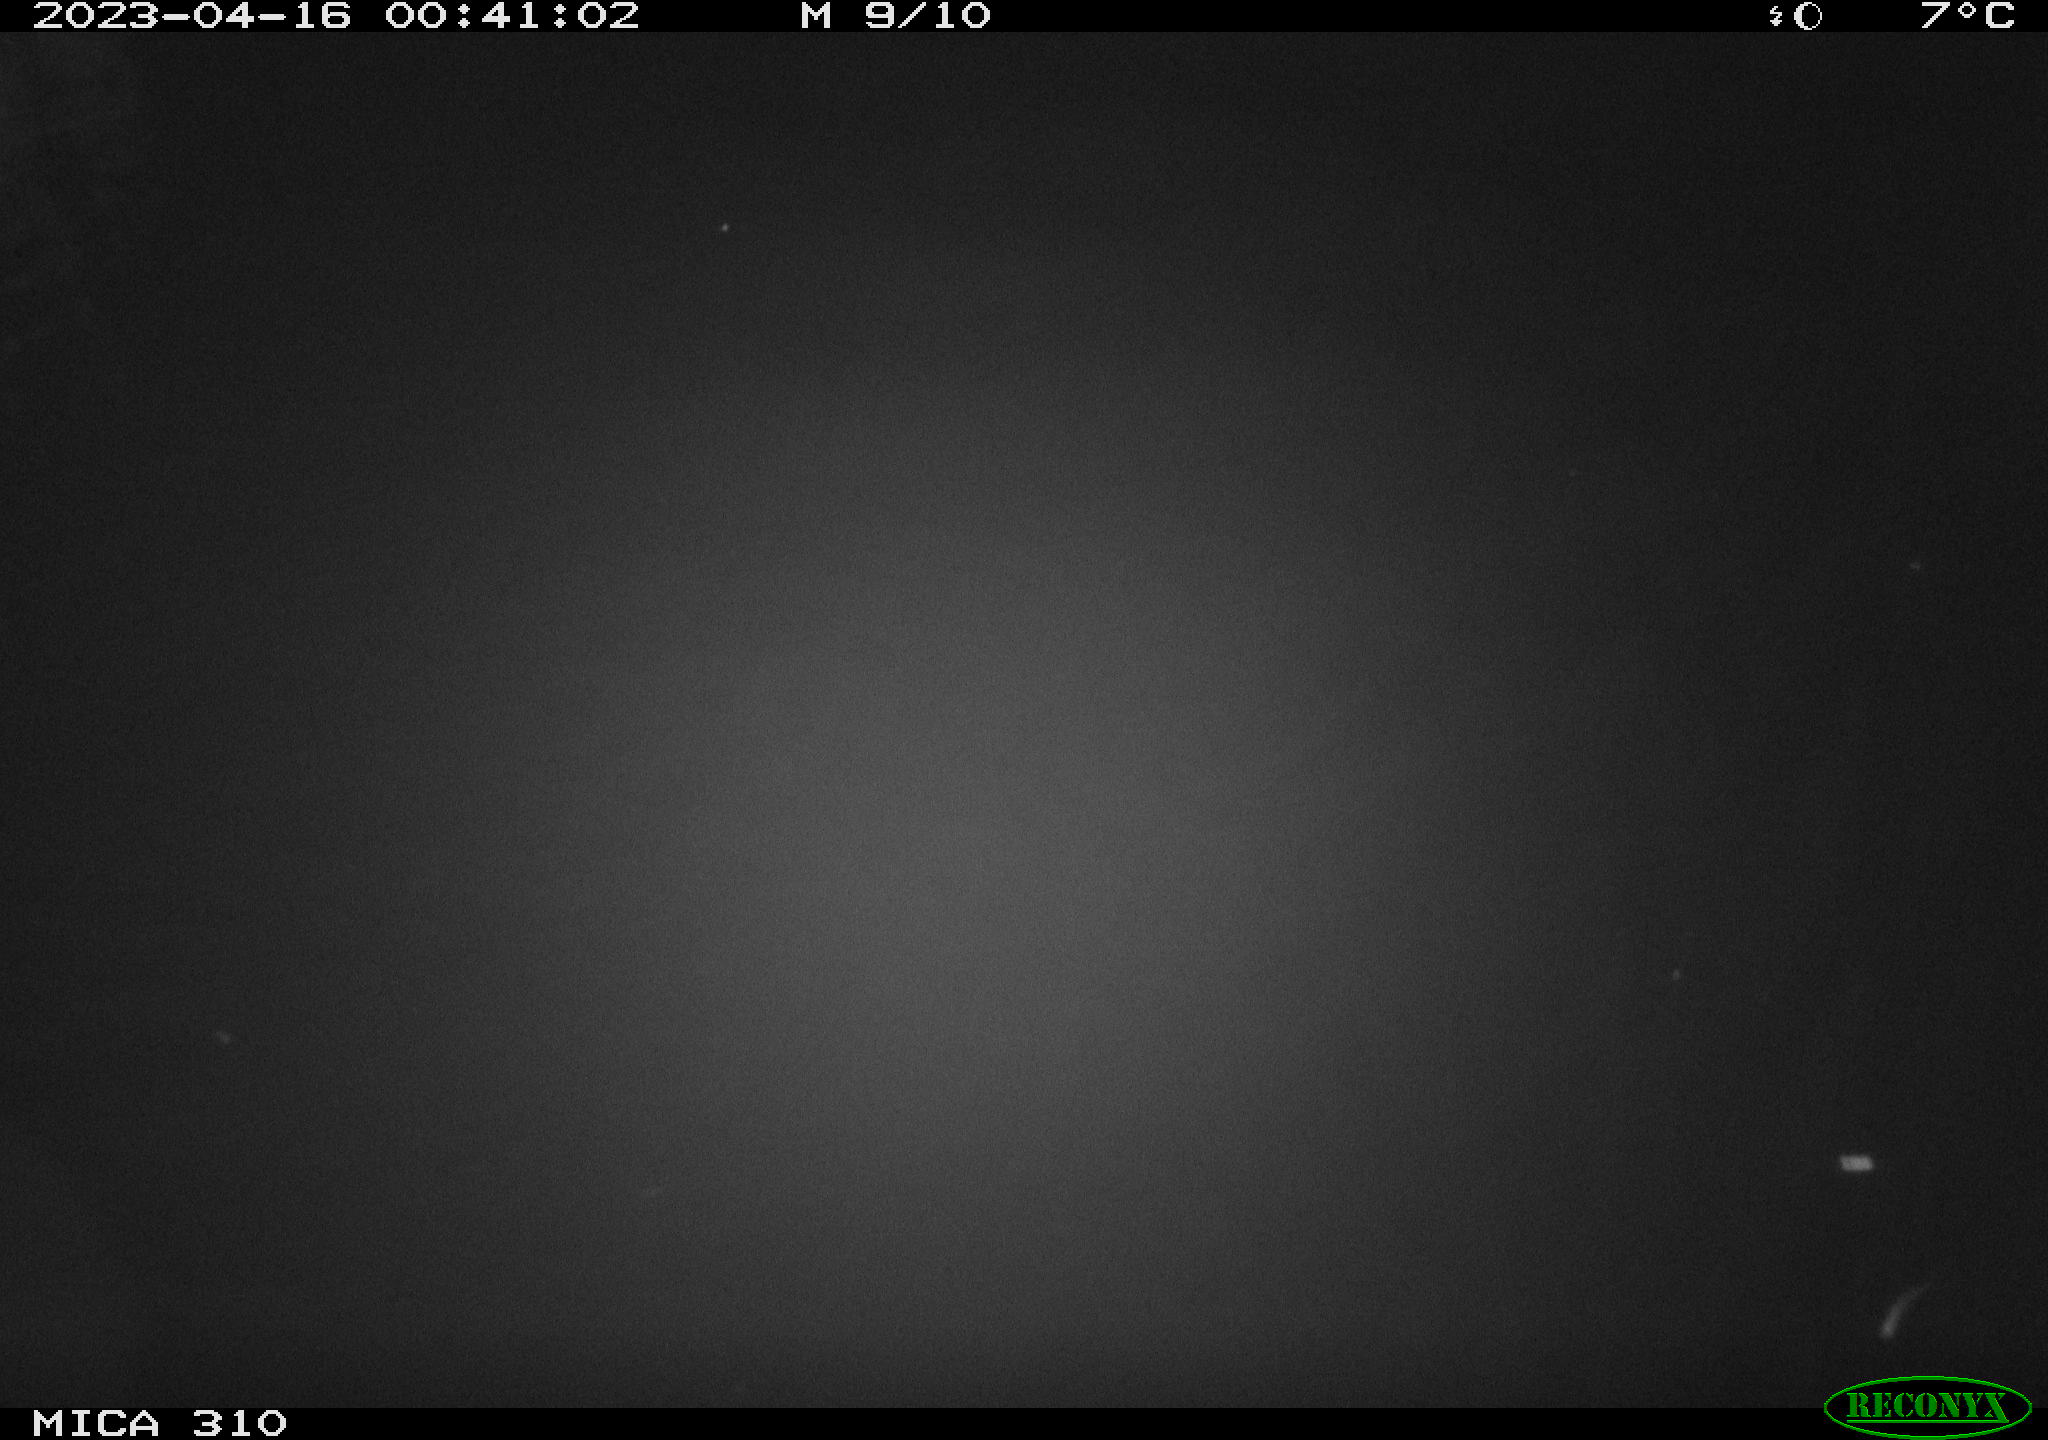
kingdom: Animalia
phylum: Chordata
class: Mammalia
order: Rodentia
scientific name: Rodentia
